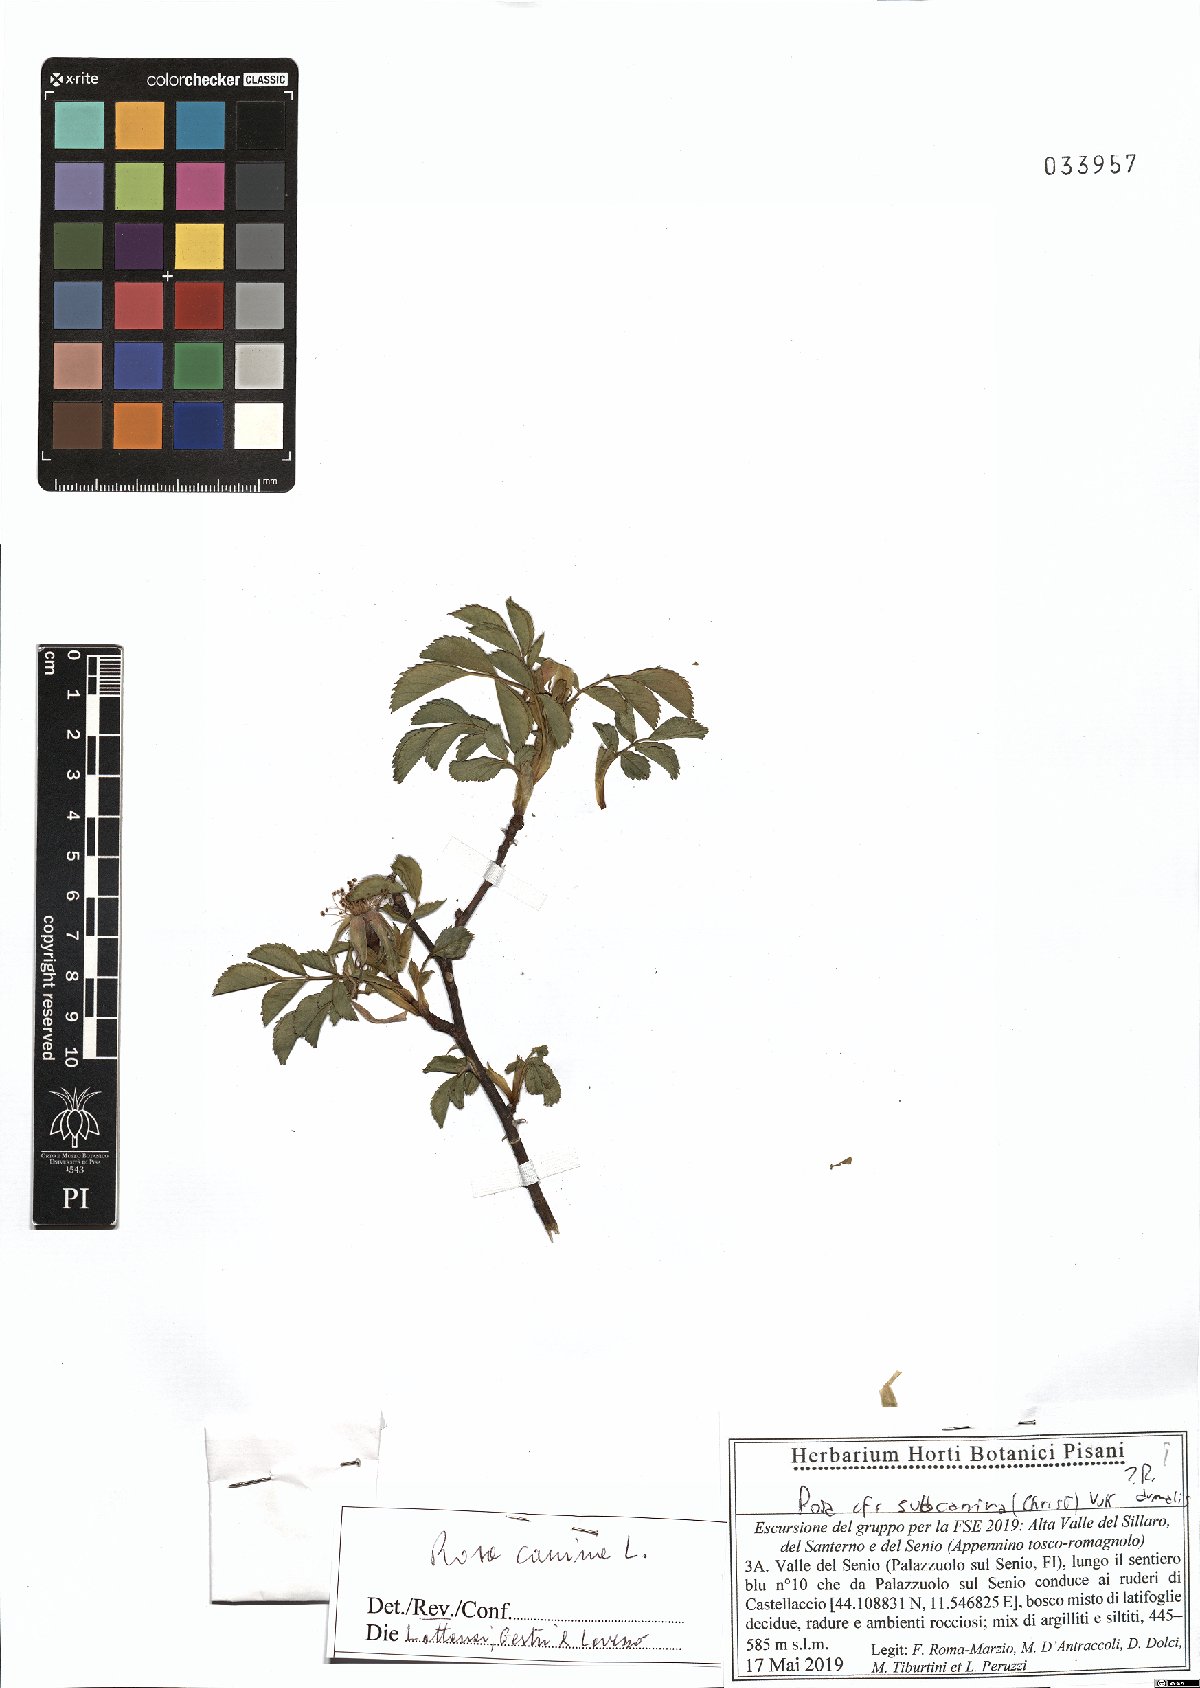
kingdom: Plantae
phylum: Tracheophyta
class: Magnoliopsida
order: Rosales
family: Rosaceae
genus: Rosa
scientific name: Rosa canina
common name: Dog rose
